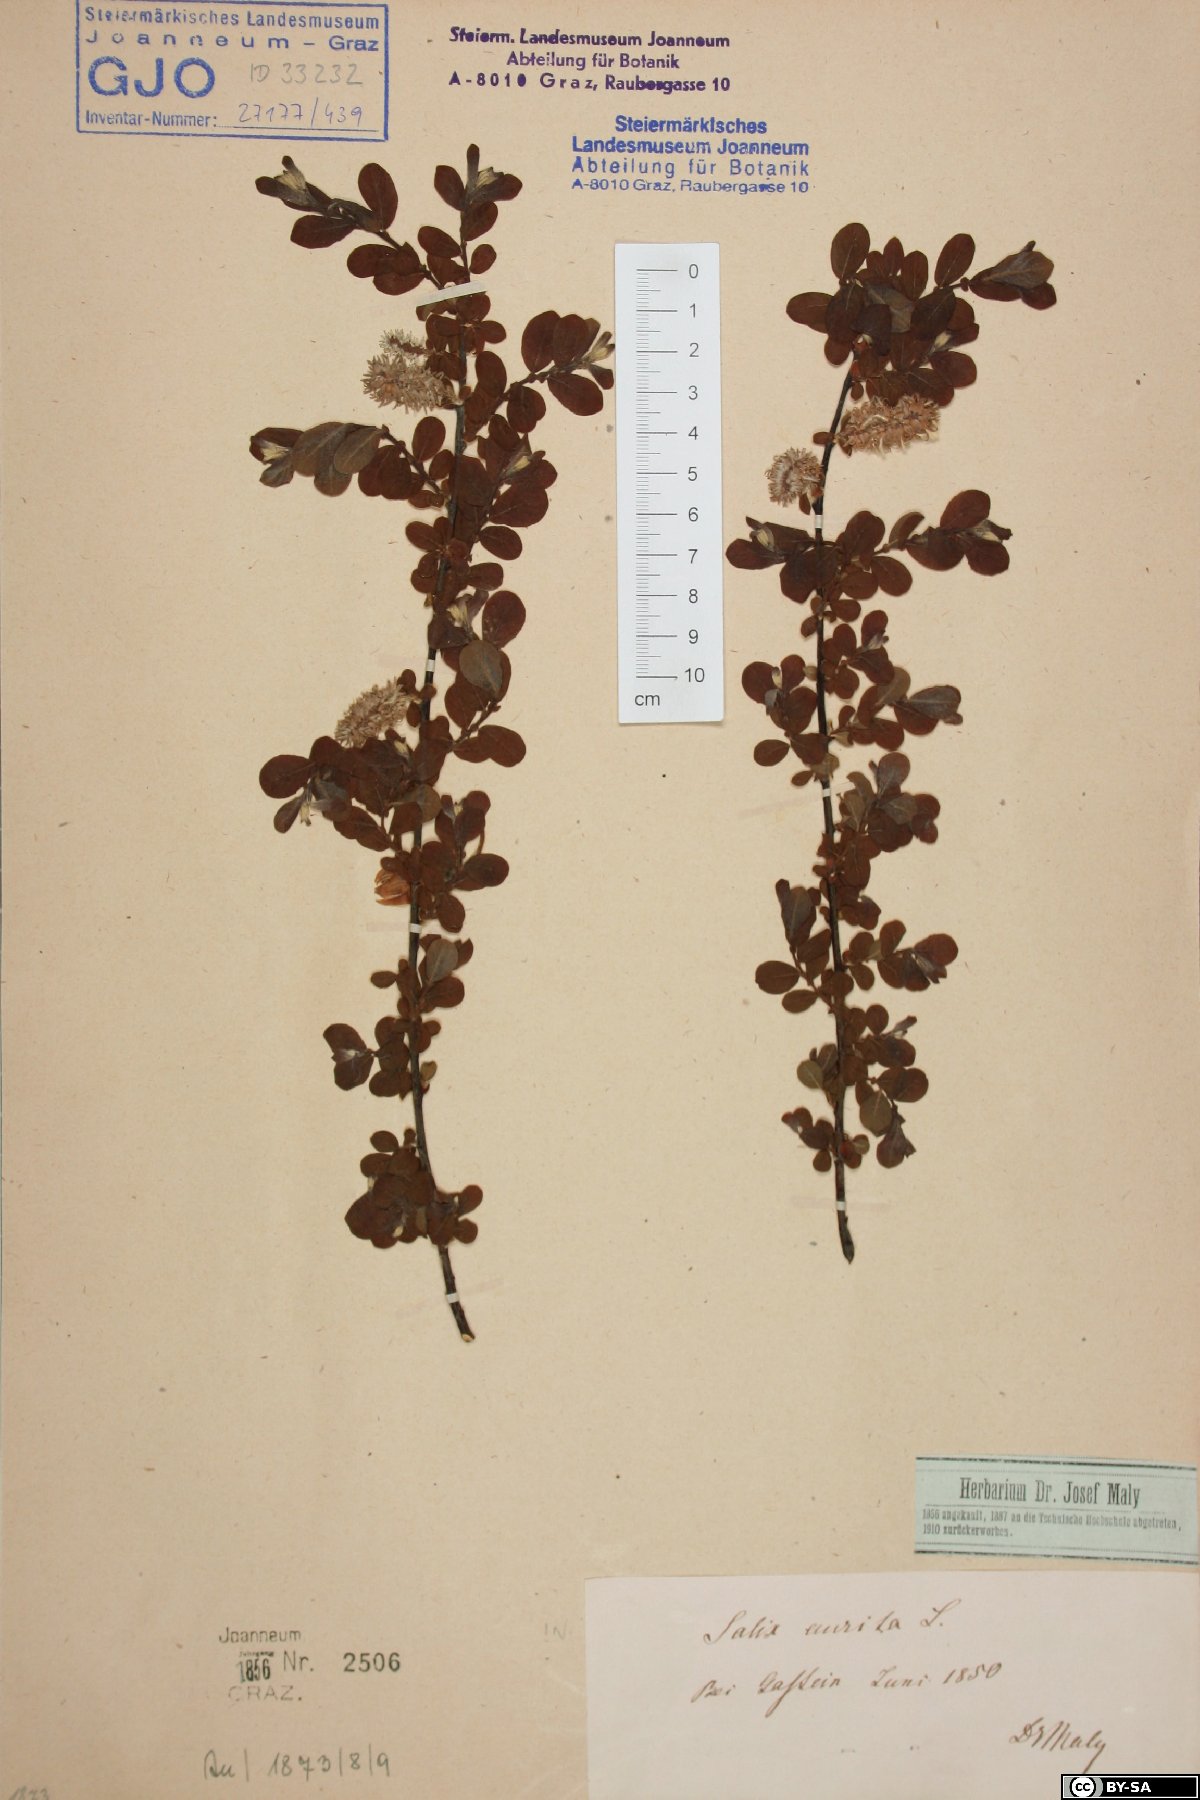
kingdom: Plantae
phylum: Tracheophyta
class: Magnoliopsida
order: Malpighiales
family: Salicaceae
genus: Salix
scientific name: Salix aurita
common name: Eared willow
